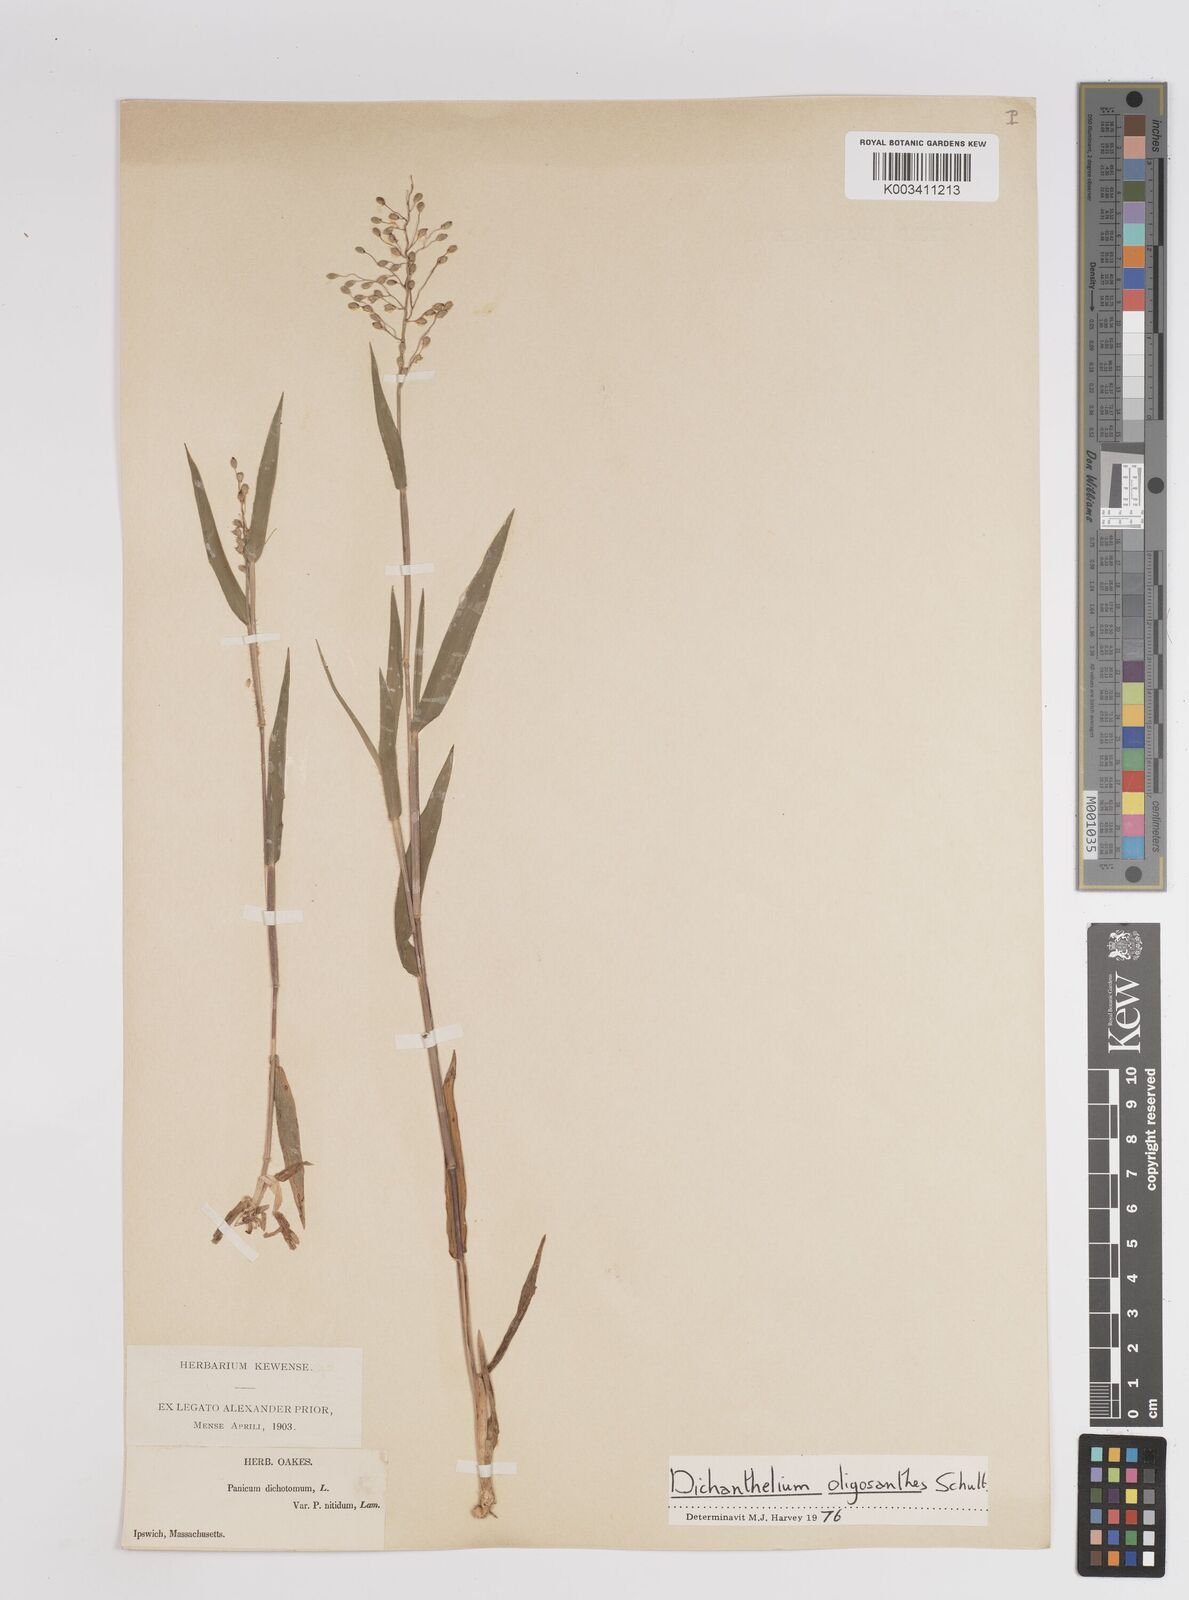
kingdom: Plantae
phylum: Tracheophyta
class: Liliopsida
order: Poales
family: Poaceae
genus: Dichanthelium
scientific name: Dichanthelium oligosanthes
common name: Few-anther obscuregrass
